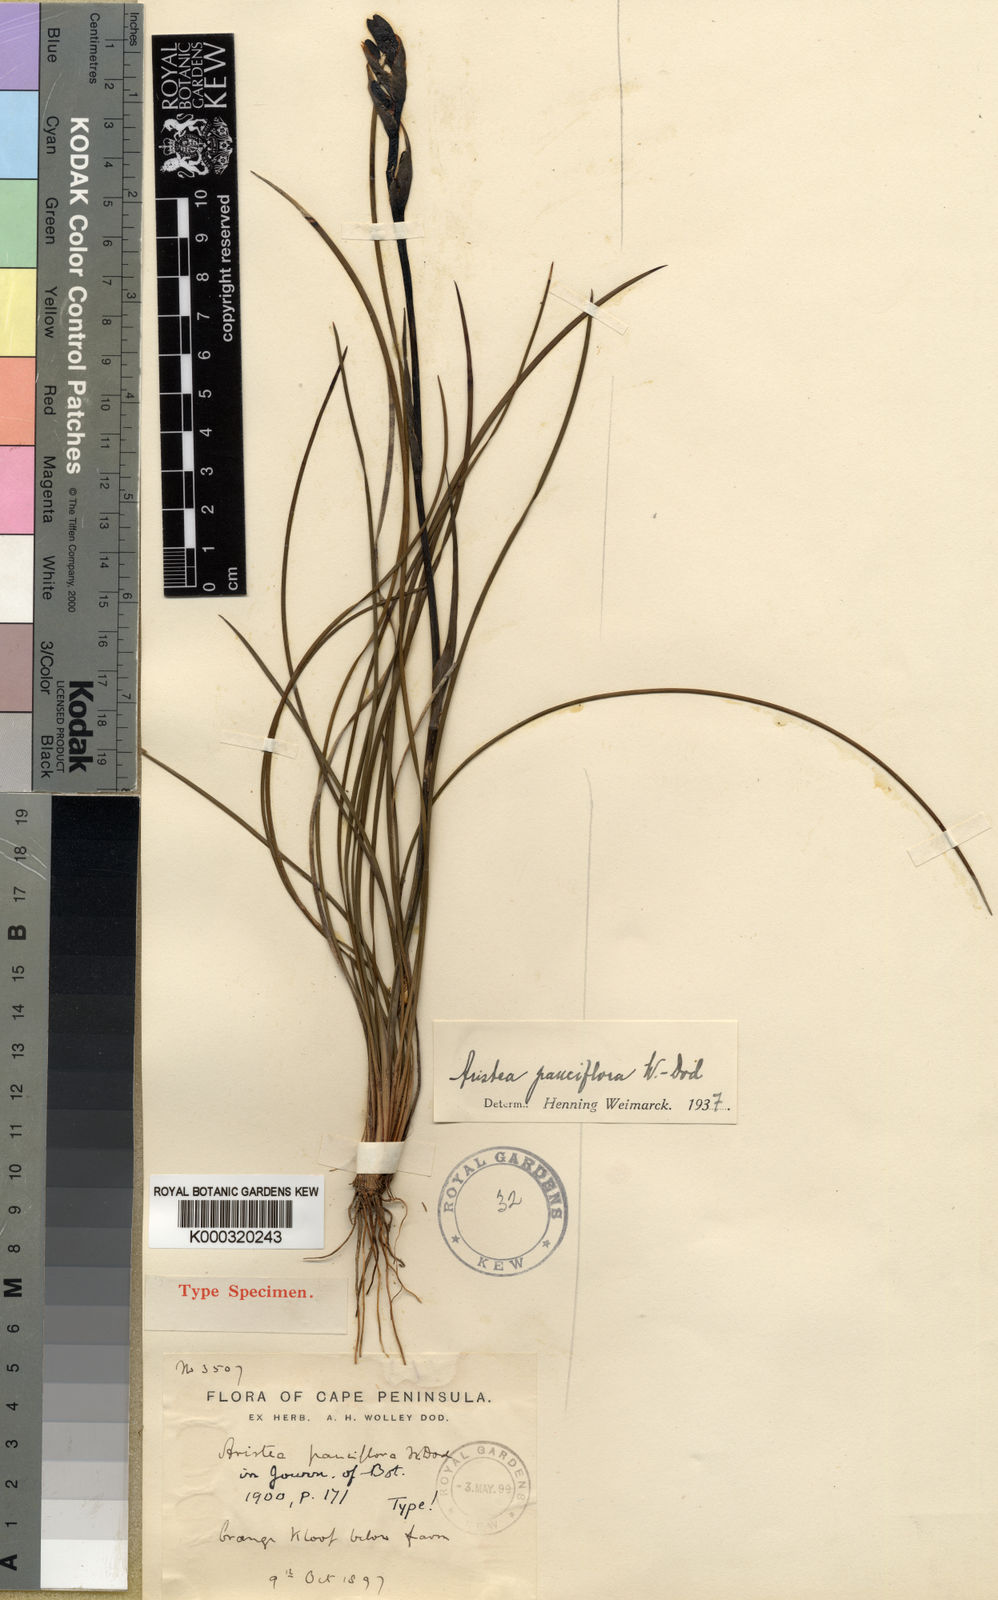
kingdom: Plantae
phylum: Tracheophyta
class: Liliopsida
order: Asparagales
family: Iridaceae
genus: Aristea
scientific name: Aristea pauciflora
